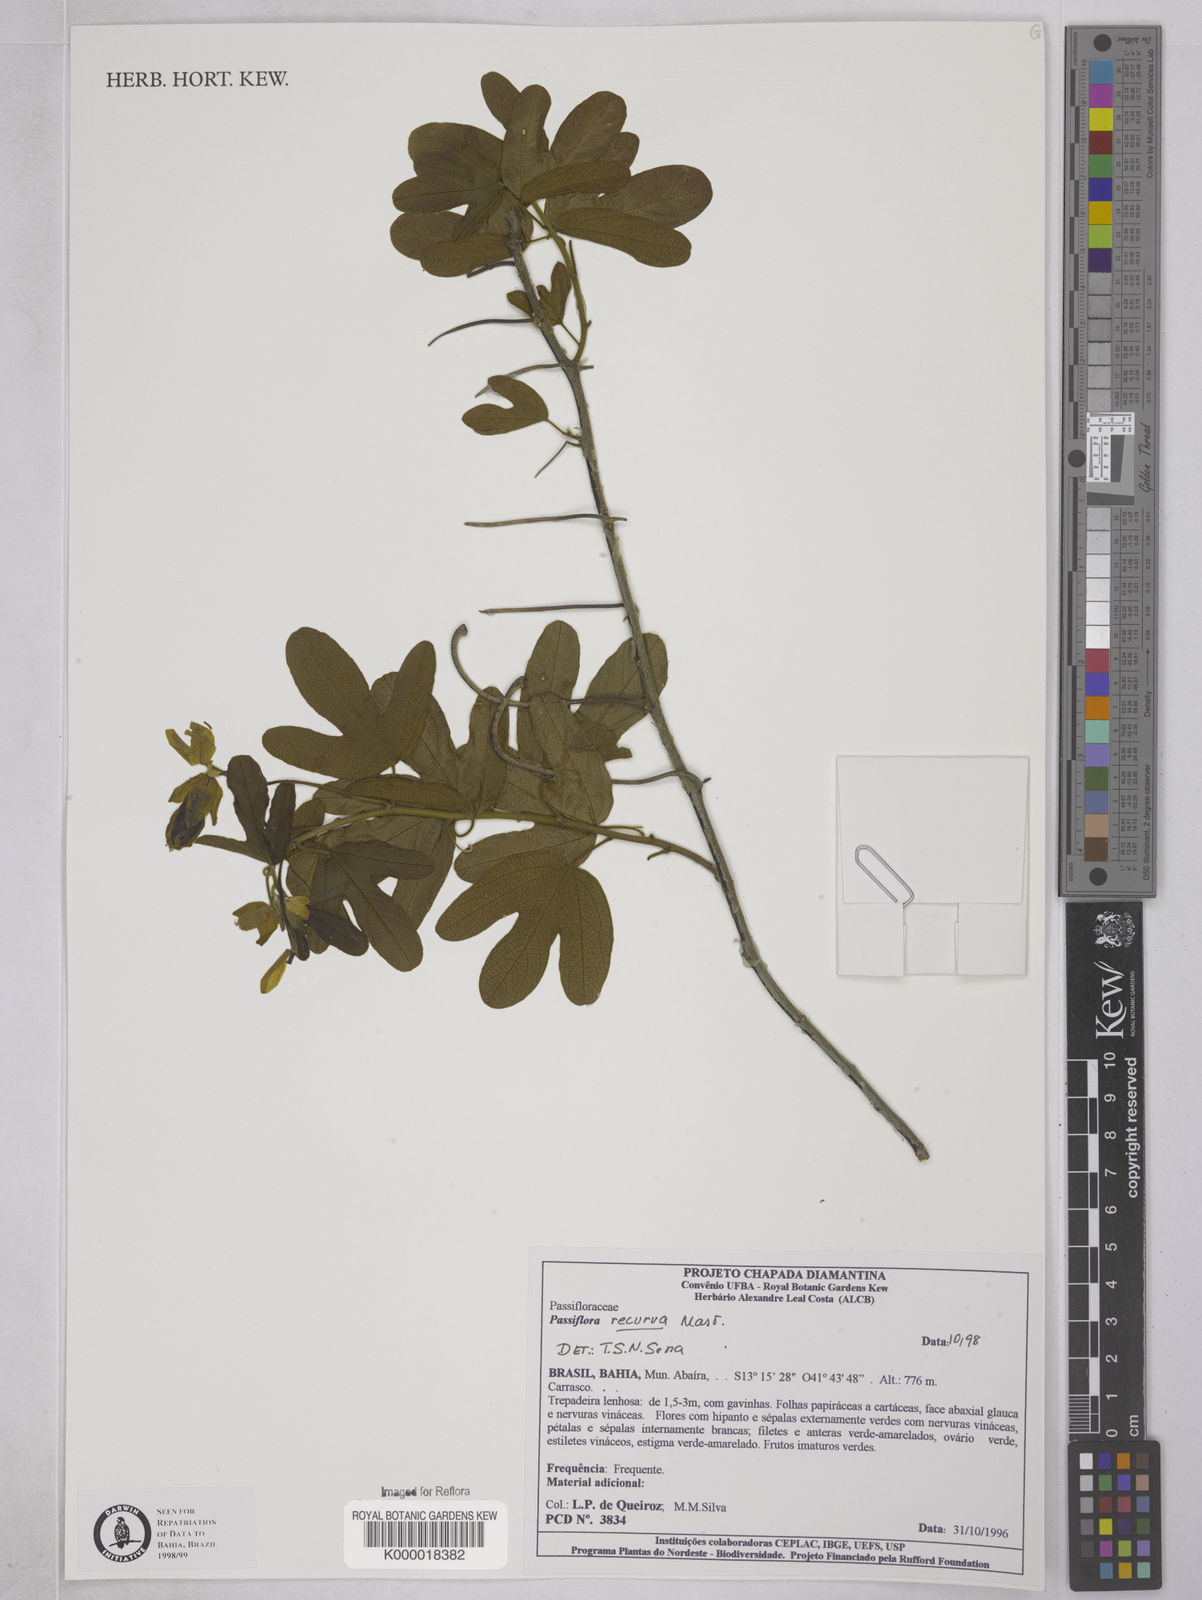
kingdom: Plantae
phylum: Tracheophyta
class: Magnoliopsida
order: Malpighiales
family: Passifloraceae
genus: Passiflora
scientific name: Passiflora recurva
